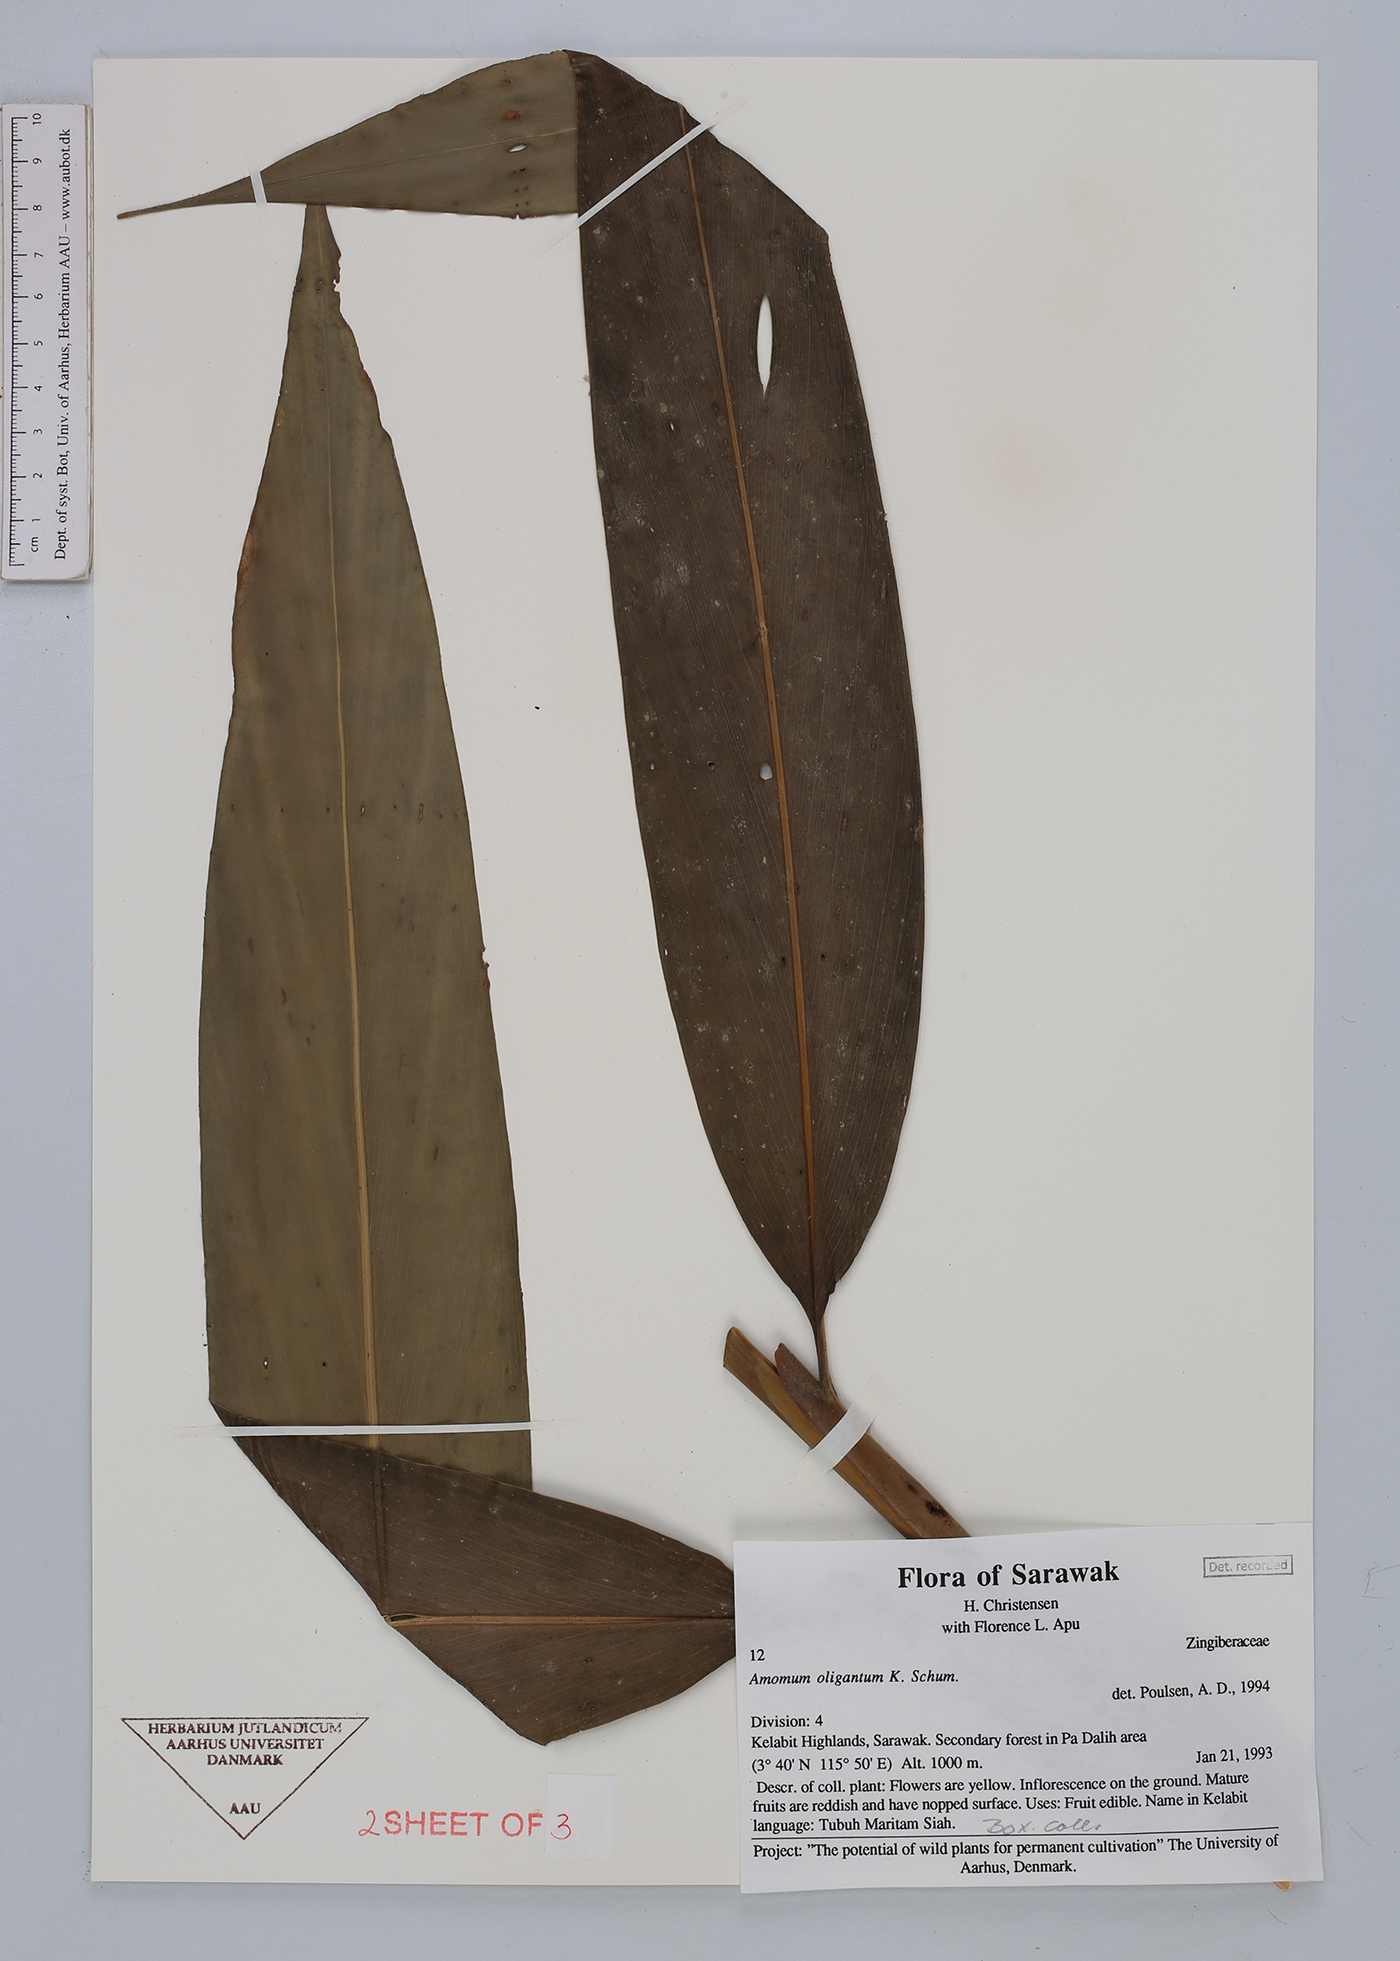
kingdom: Plantae
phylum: Tracheophyta
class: Liliopsida
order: Zingiberales
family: Zingiberaceae
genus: Meistera
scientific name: Meistera oligantha
